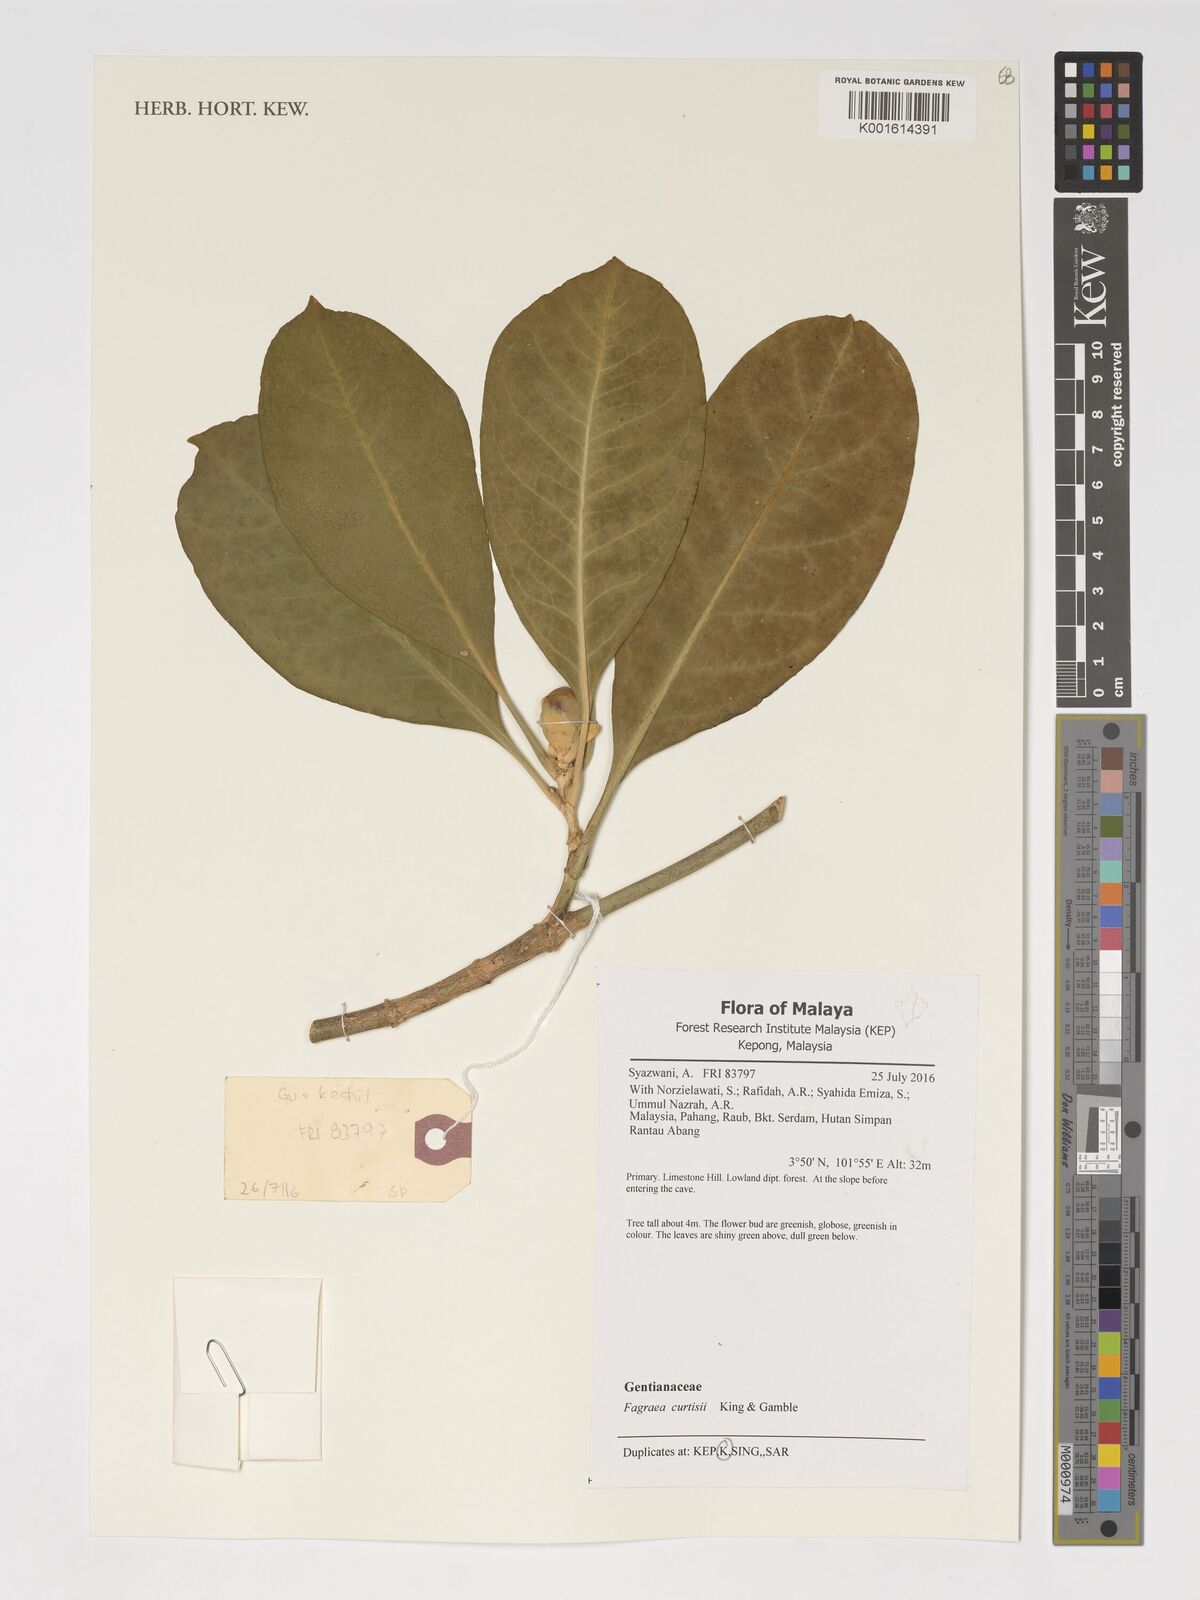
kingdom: Plantae
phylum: Tracheophyta
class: Magnoliopsida
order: Gentianales
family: Gentianaceae
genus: Fagraea
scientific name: Fagraea curtisii
